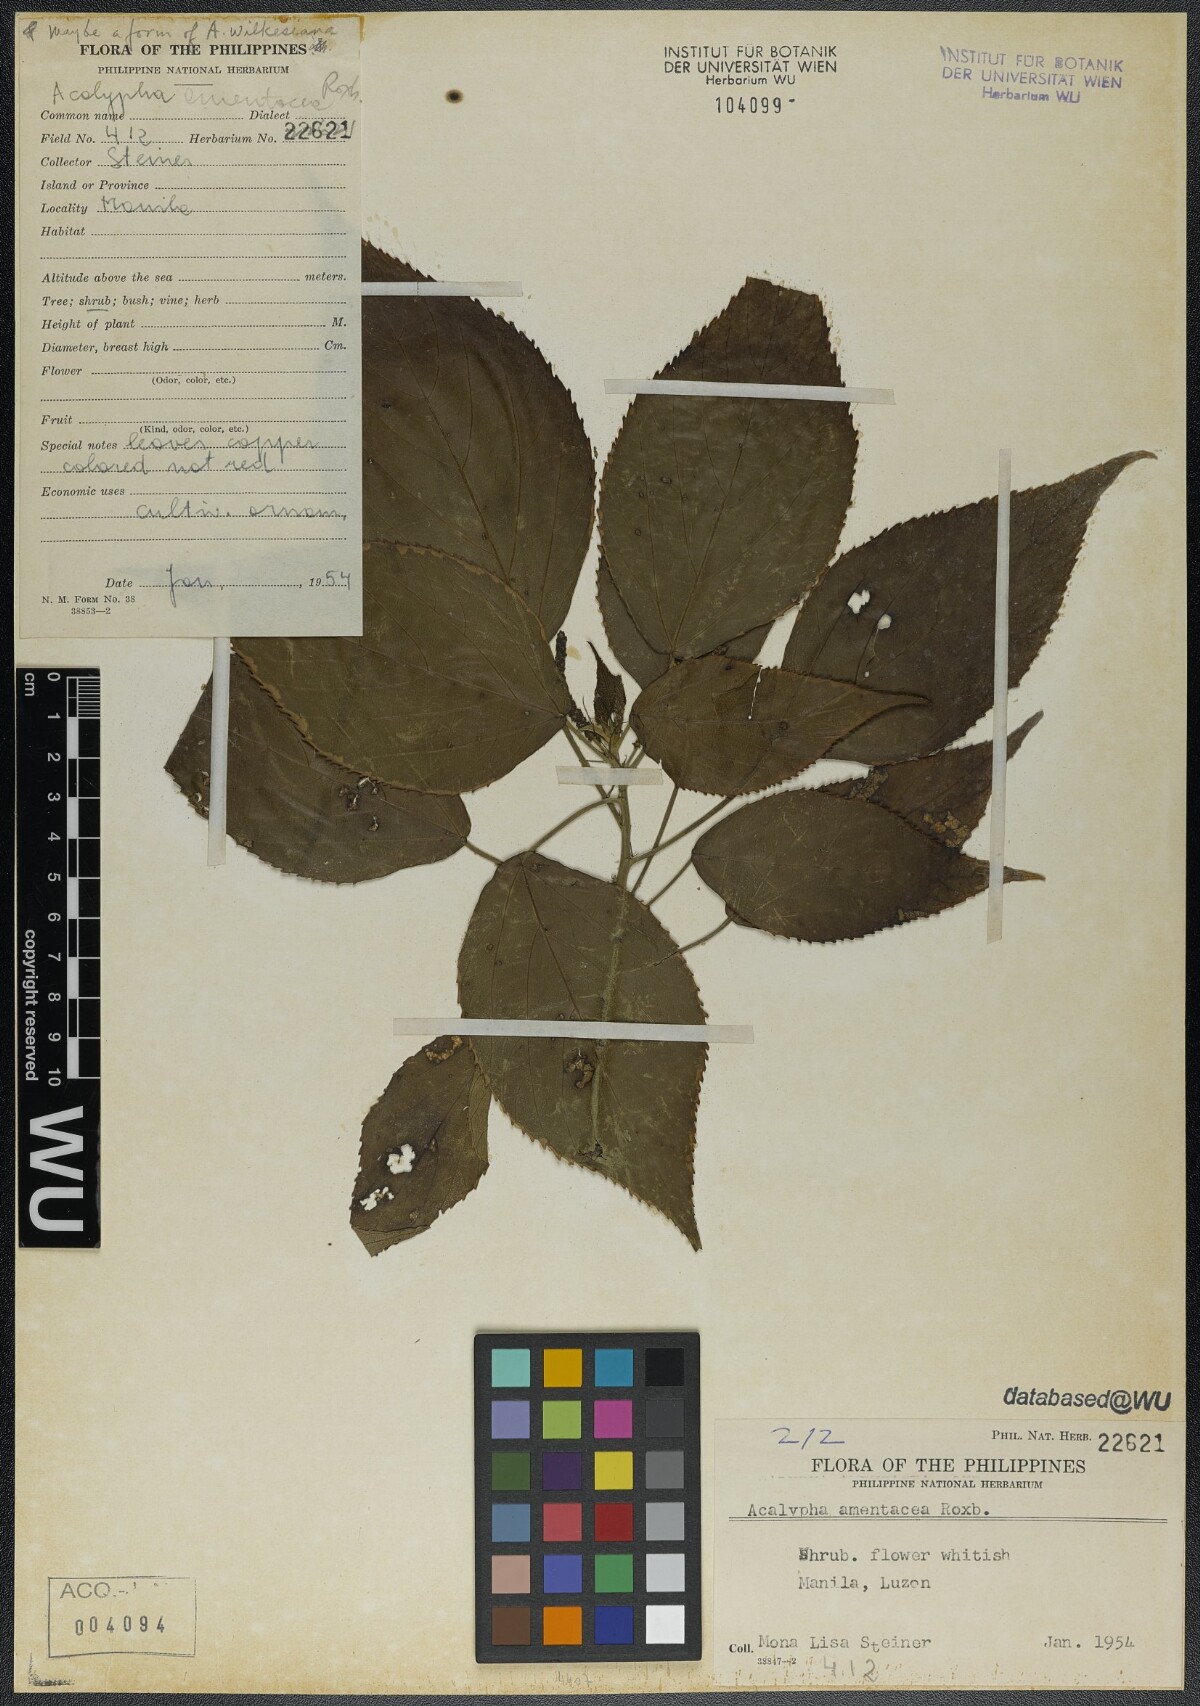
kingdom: Plantae
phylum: Tracheophyta
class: Magnoliopsida
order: Malpighiales
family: Euphorbiaceae
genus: Acalypha
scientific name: Acalypha amentacea
